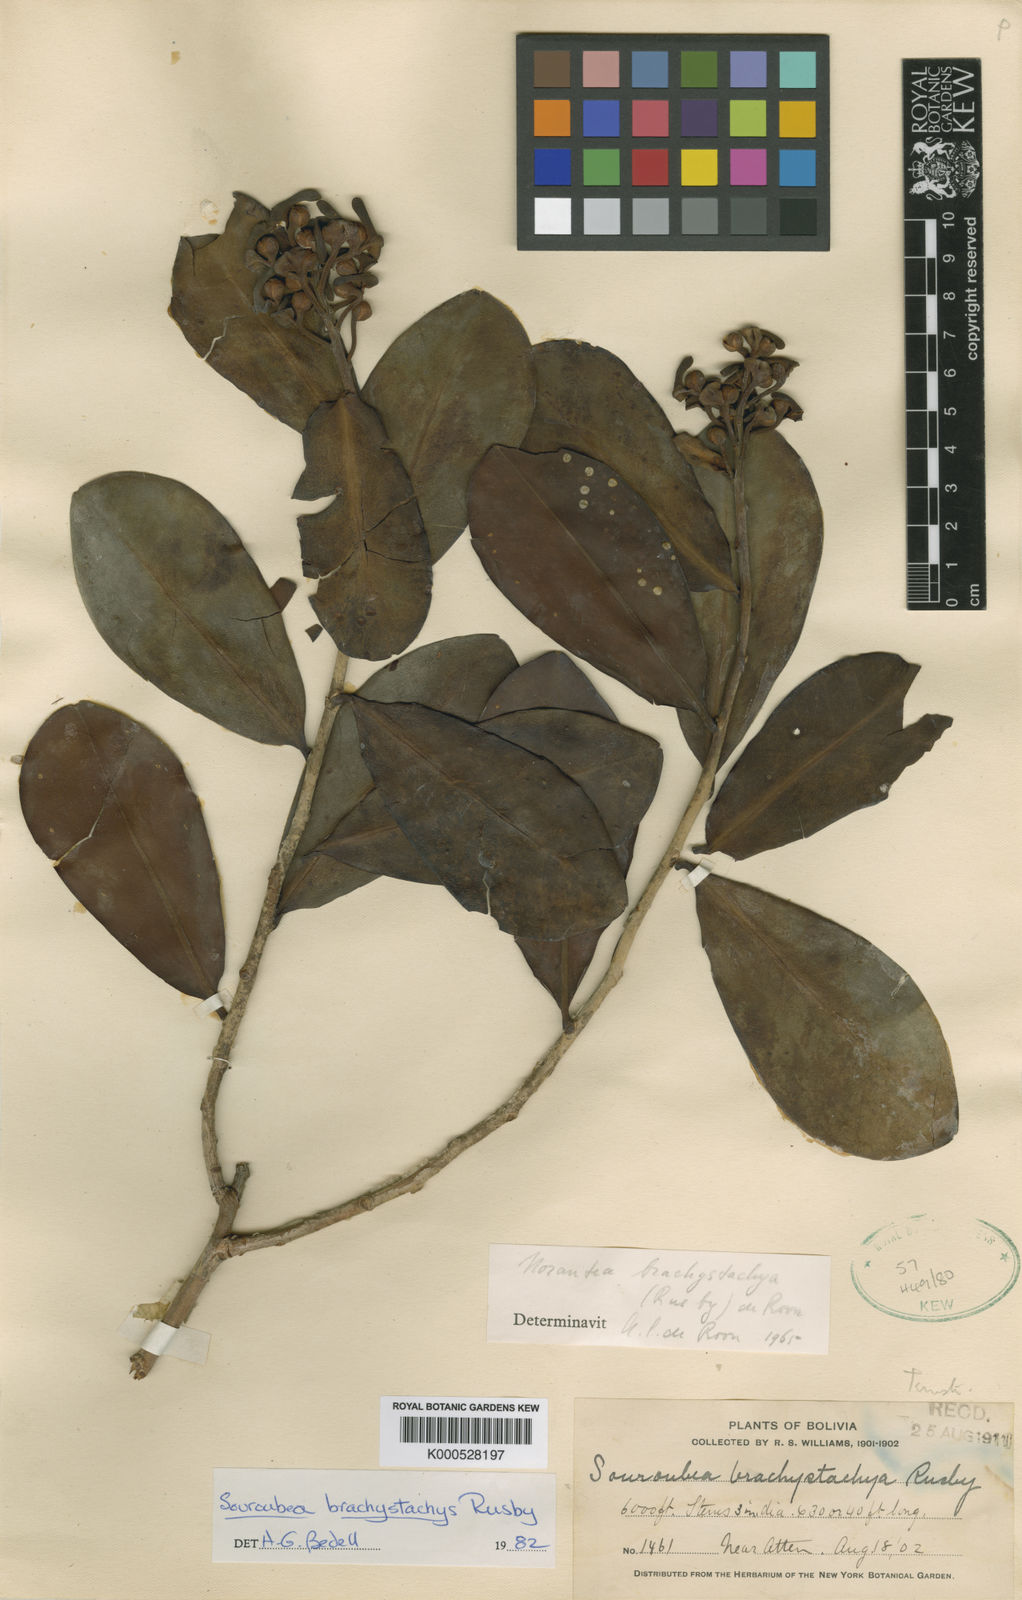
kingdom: Plantae
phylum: Tracheophyta
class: Magnoliopsida
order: Ericales
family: Marcgraviaceae
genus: Schwartzia
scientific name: Schwartzia weddelliana
